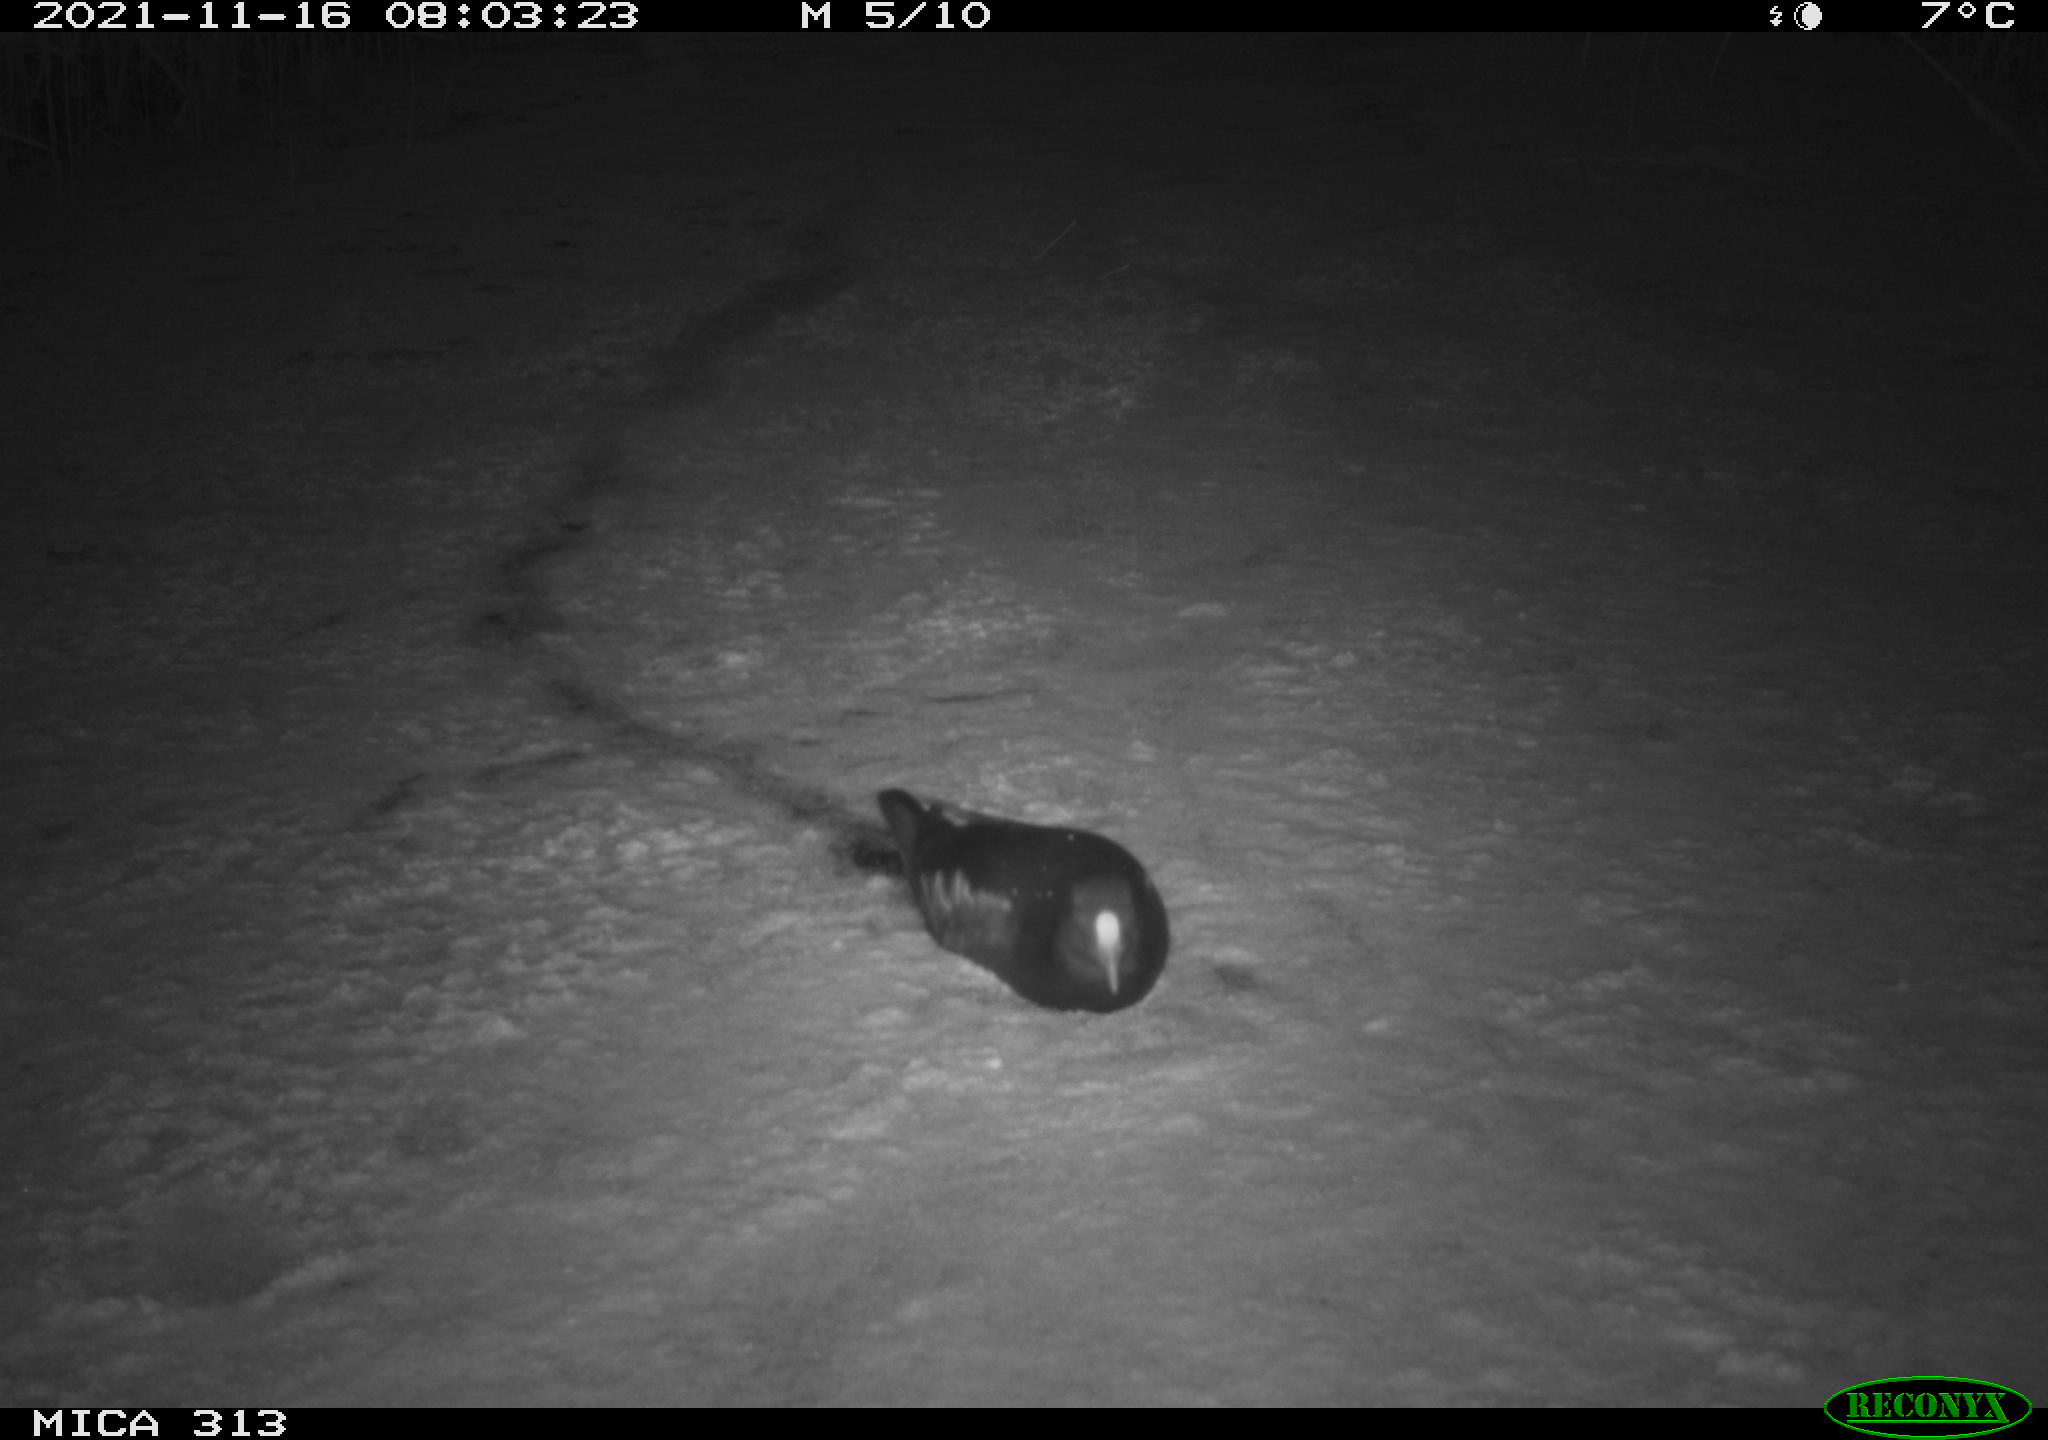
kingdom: Animalia
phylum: Chordata
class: Aves
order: Gruiformes
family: Rallidae
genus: Gallinula
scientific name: Gallinula chloropus
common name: Common moorhen
